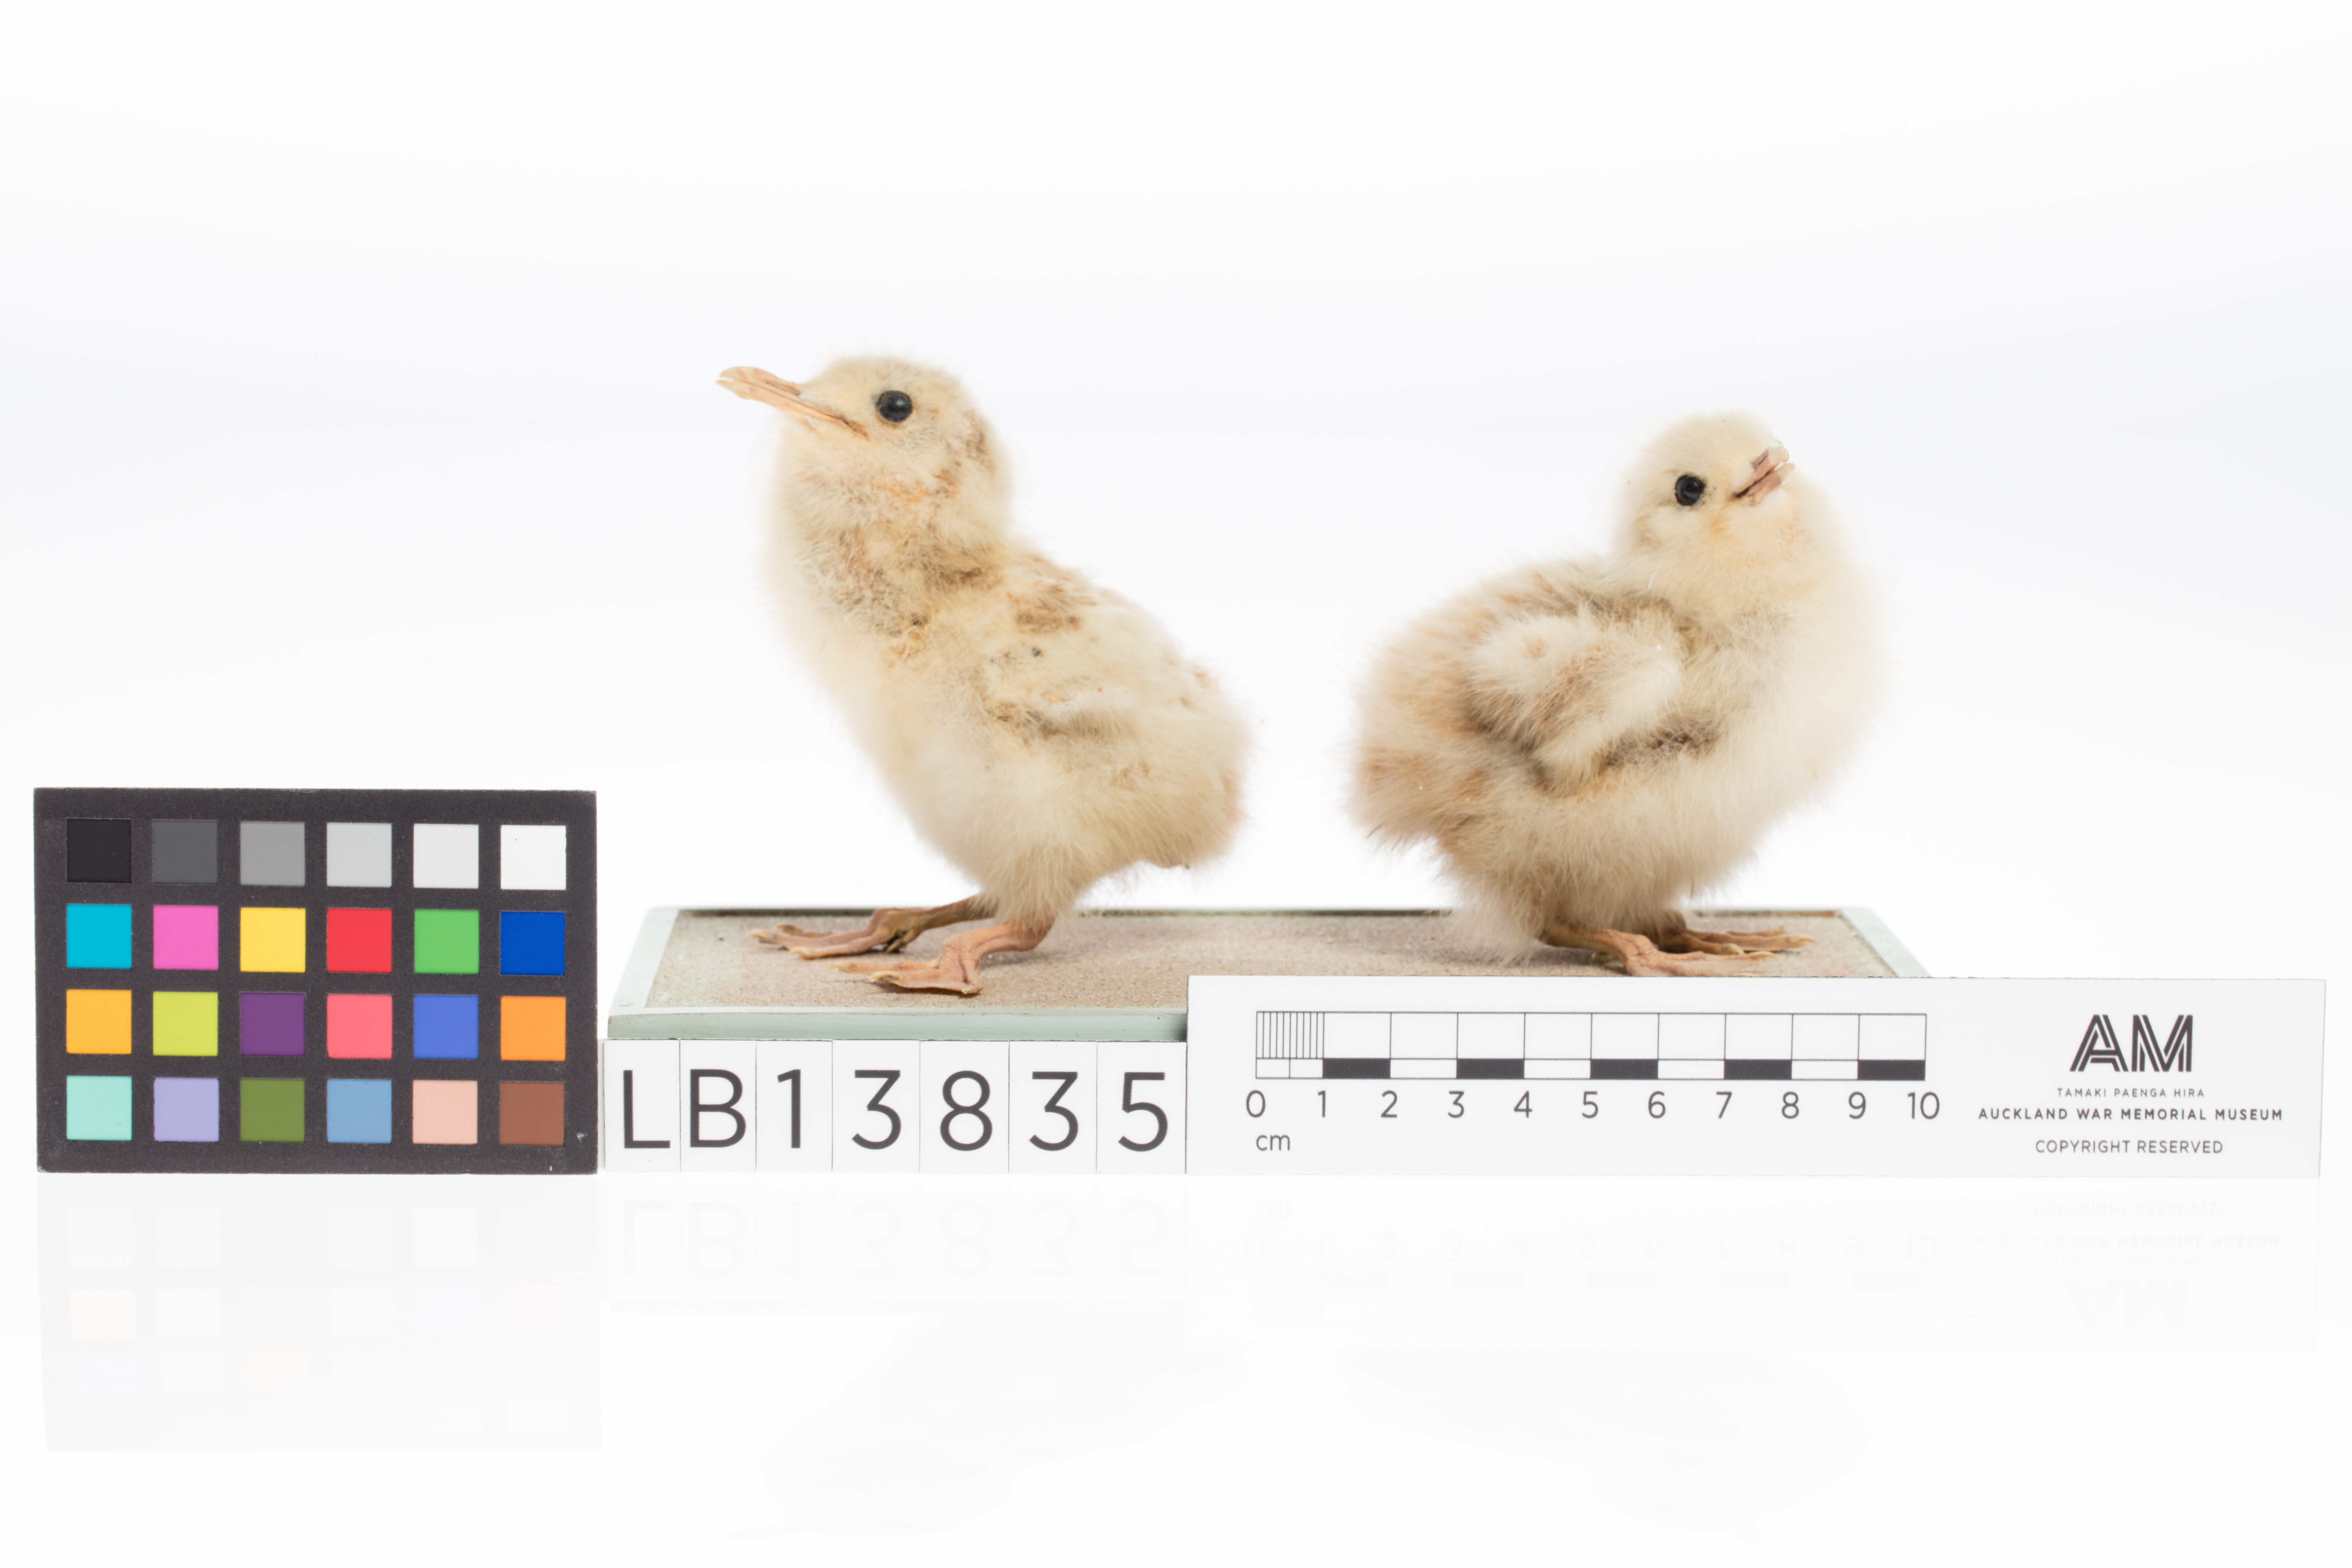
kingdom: Animalia
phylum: Chordata
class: Aves
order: Charadriiformes
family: Laridae
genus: Chroicocephalus
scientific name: Chroicocephalus bulleri
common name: Black-billed gull
